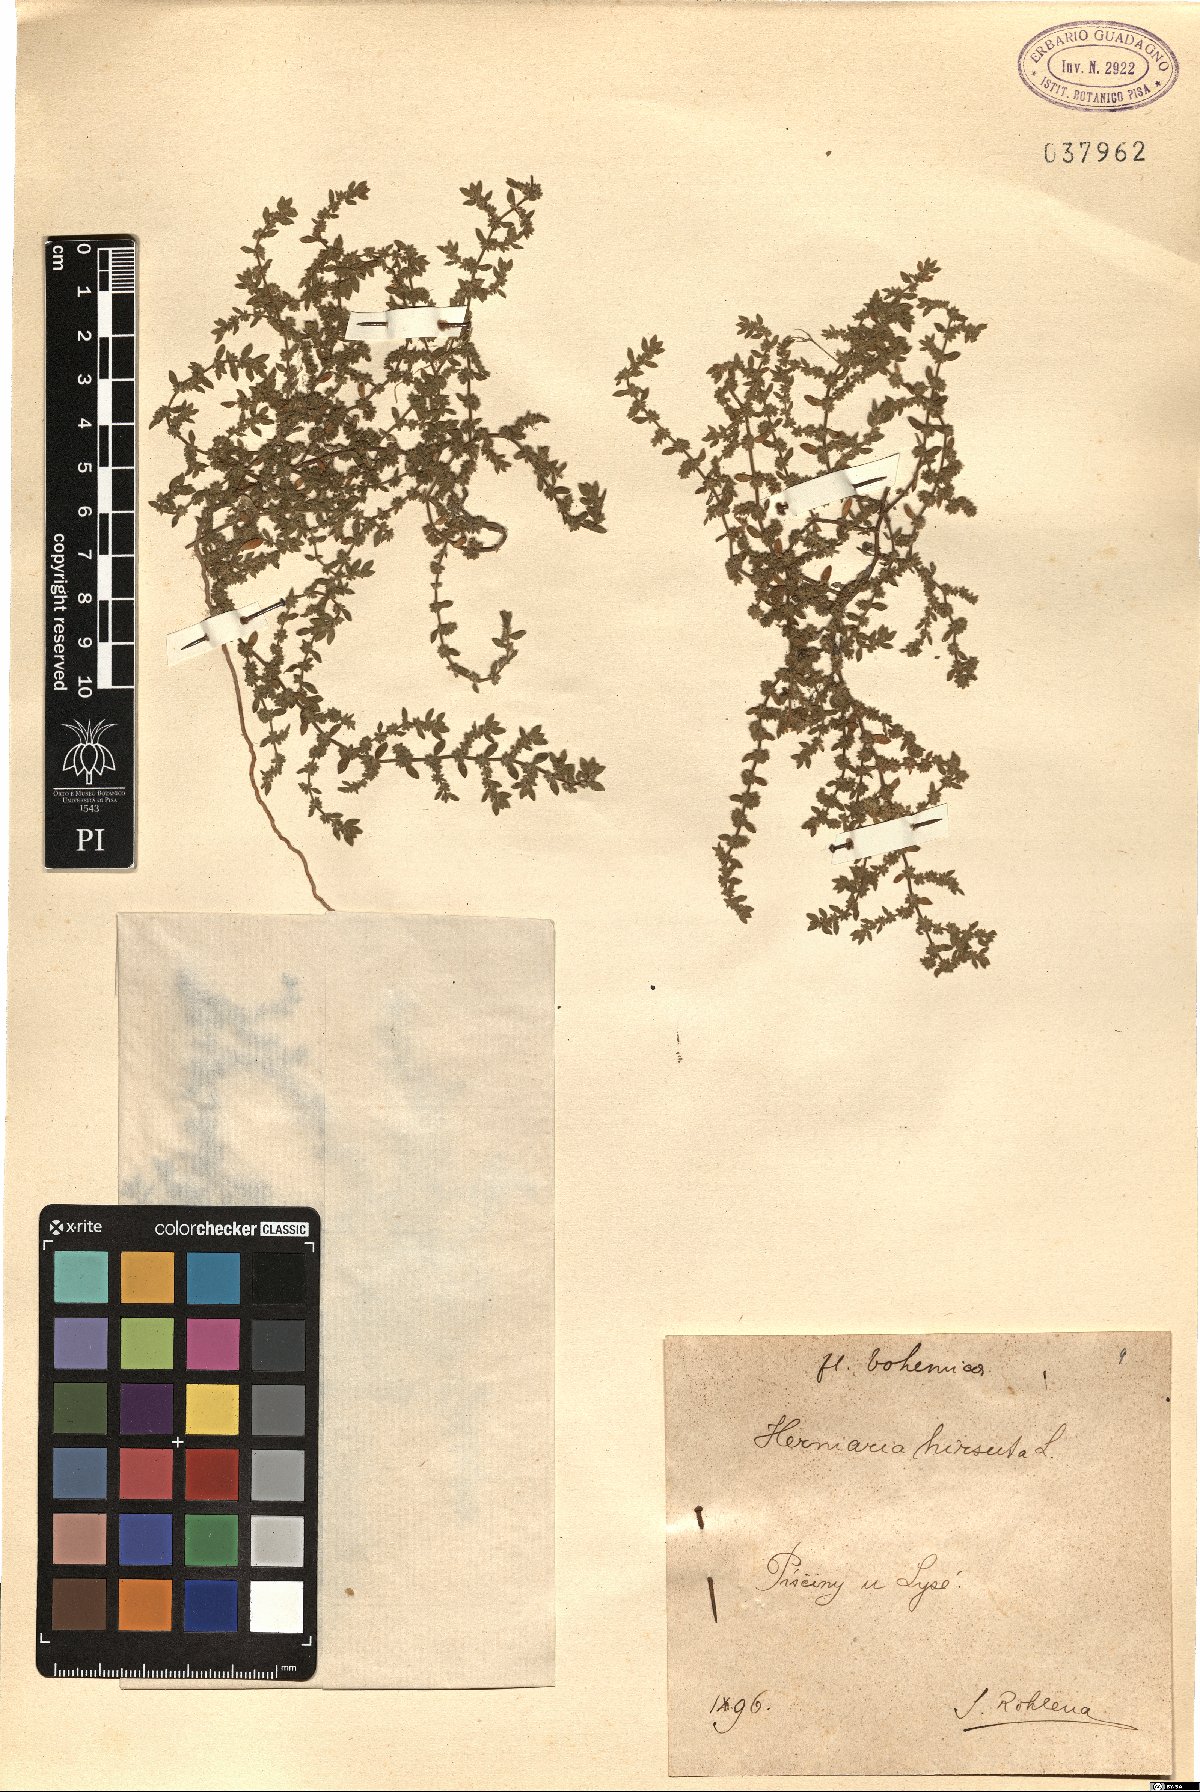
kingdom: Plantae
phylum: Tracheophyta
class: Magnoliopsida
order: Caryophyllales
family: Caryophyllaceae
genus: Herniaria
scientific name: Herniaria hirsuta
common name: Hairy rupturewort
